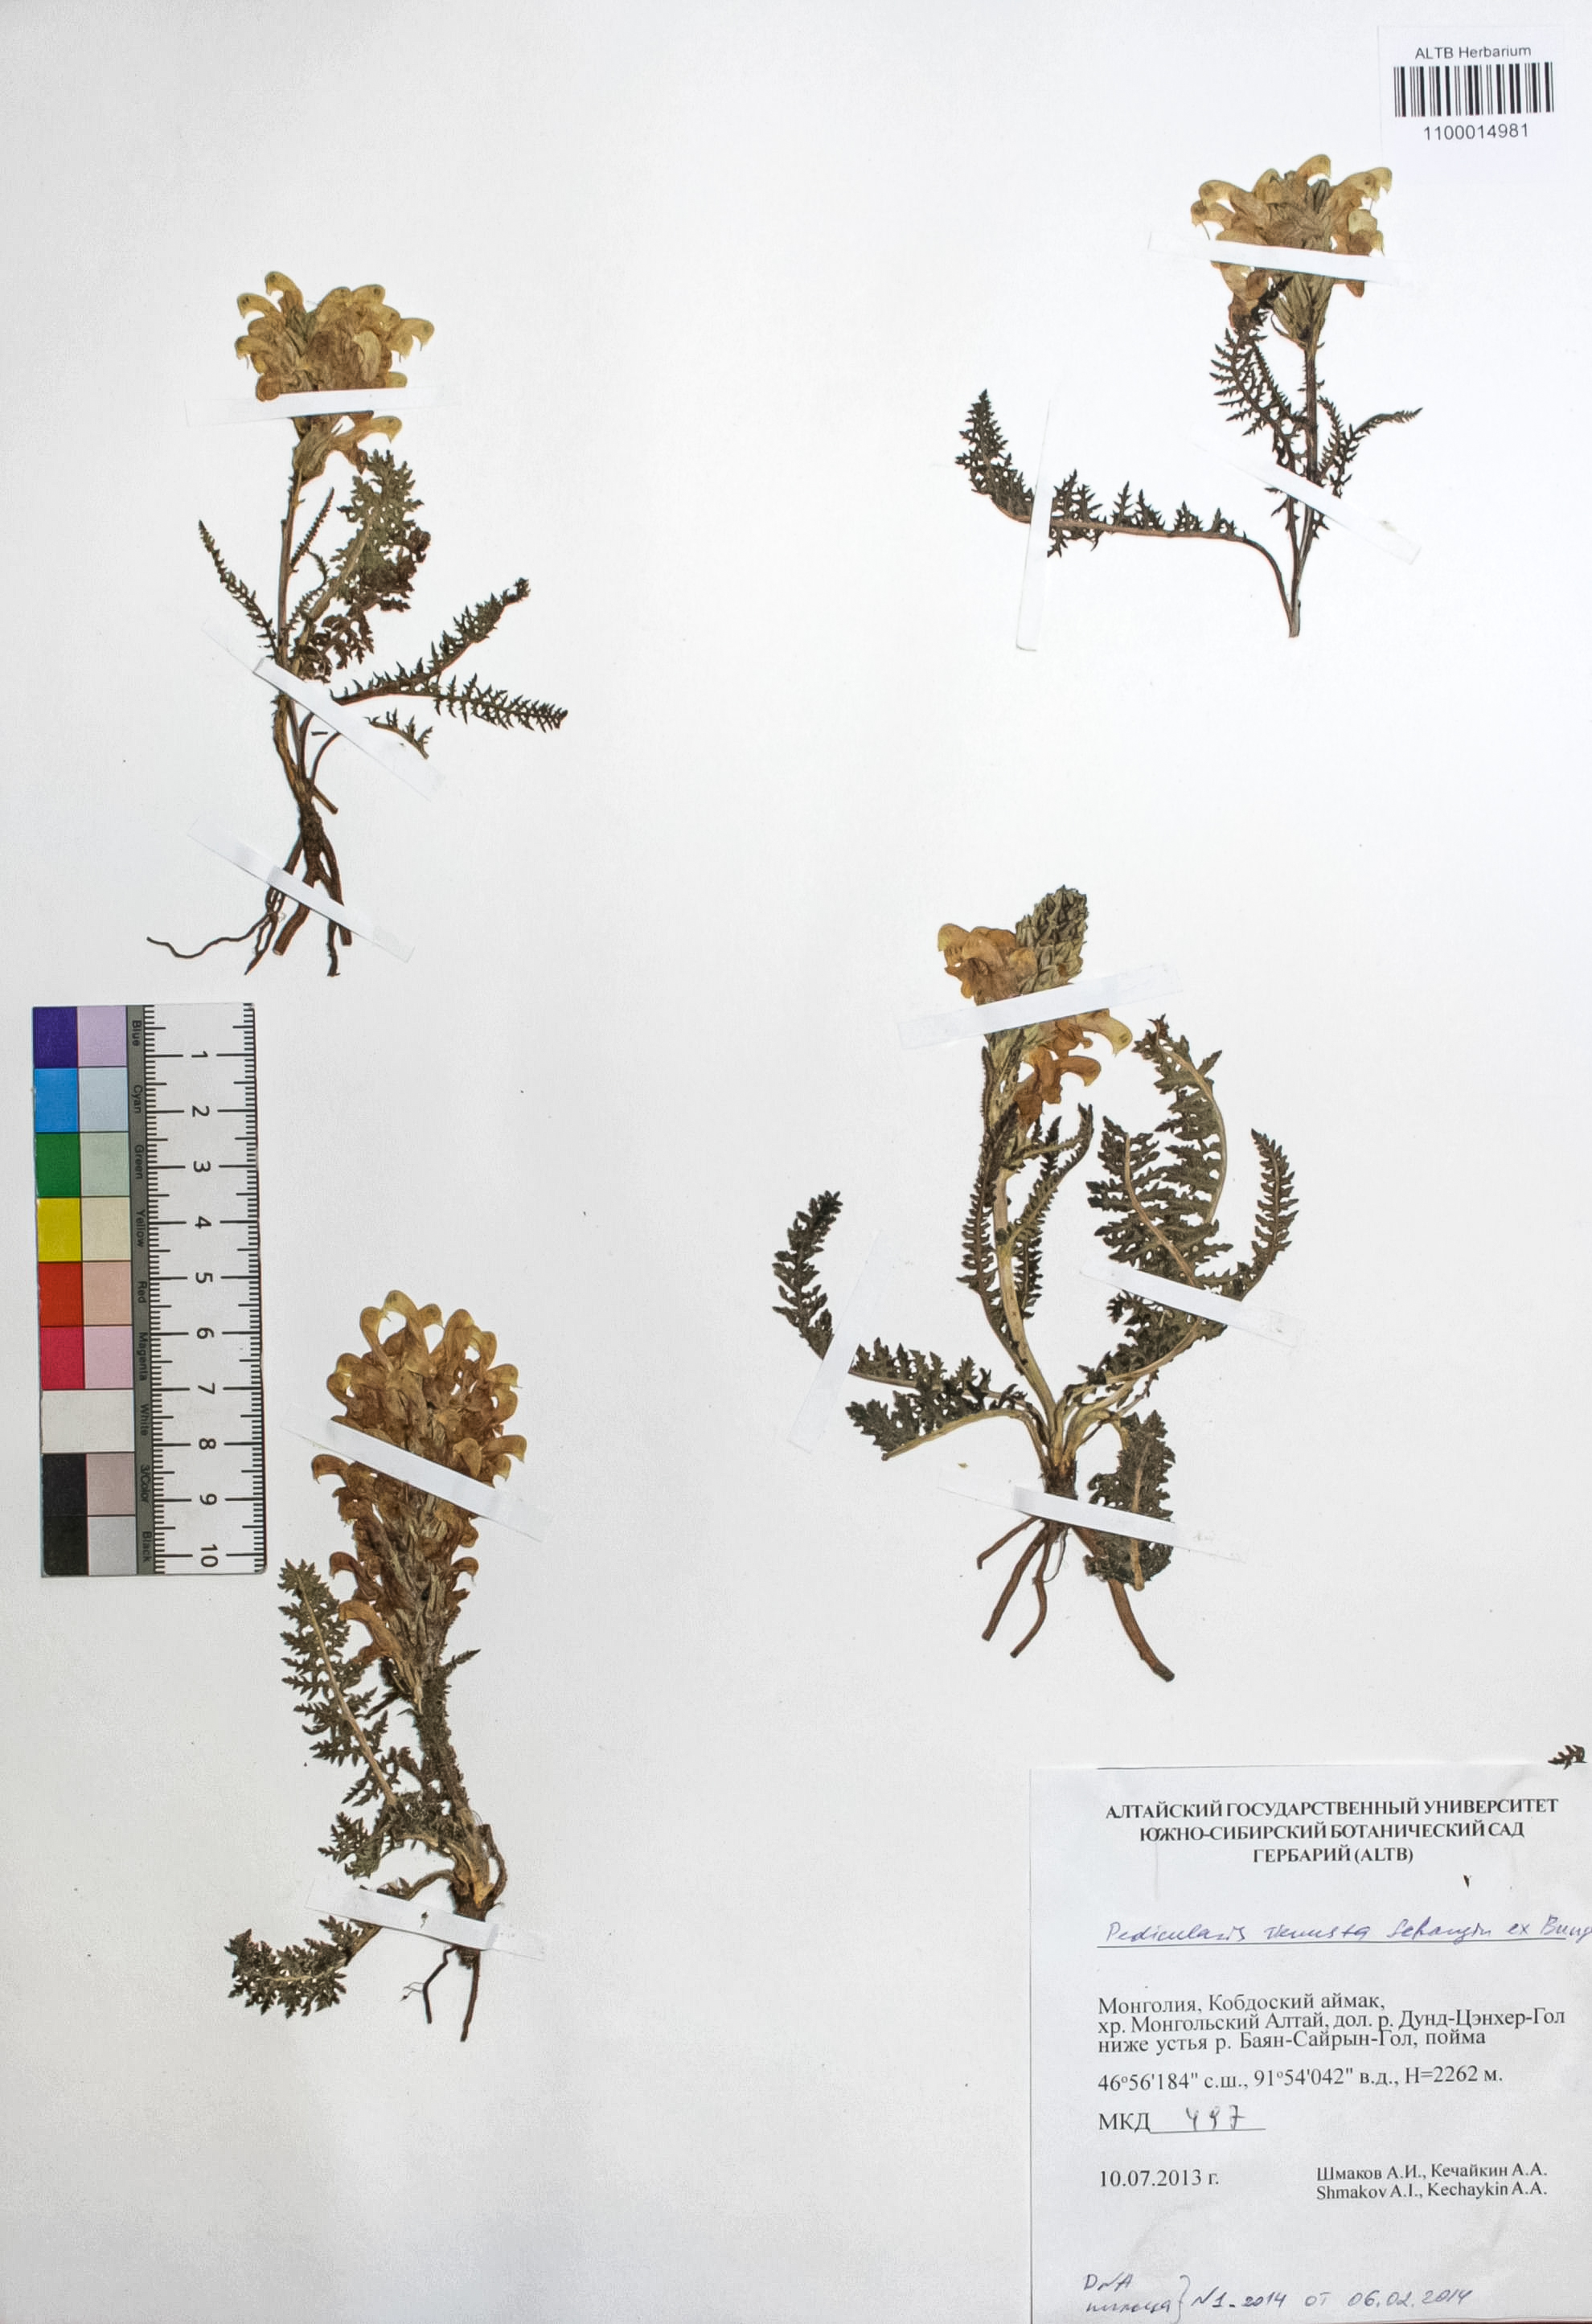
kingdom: Plantae
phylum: Tracheophyta
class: Magnoliopsida
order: Lamiales
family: Orobanchaceae
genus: Pedicularis
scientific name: Pedicularis venusta
